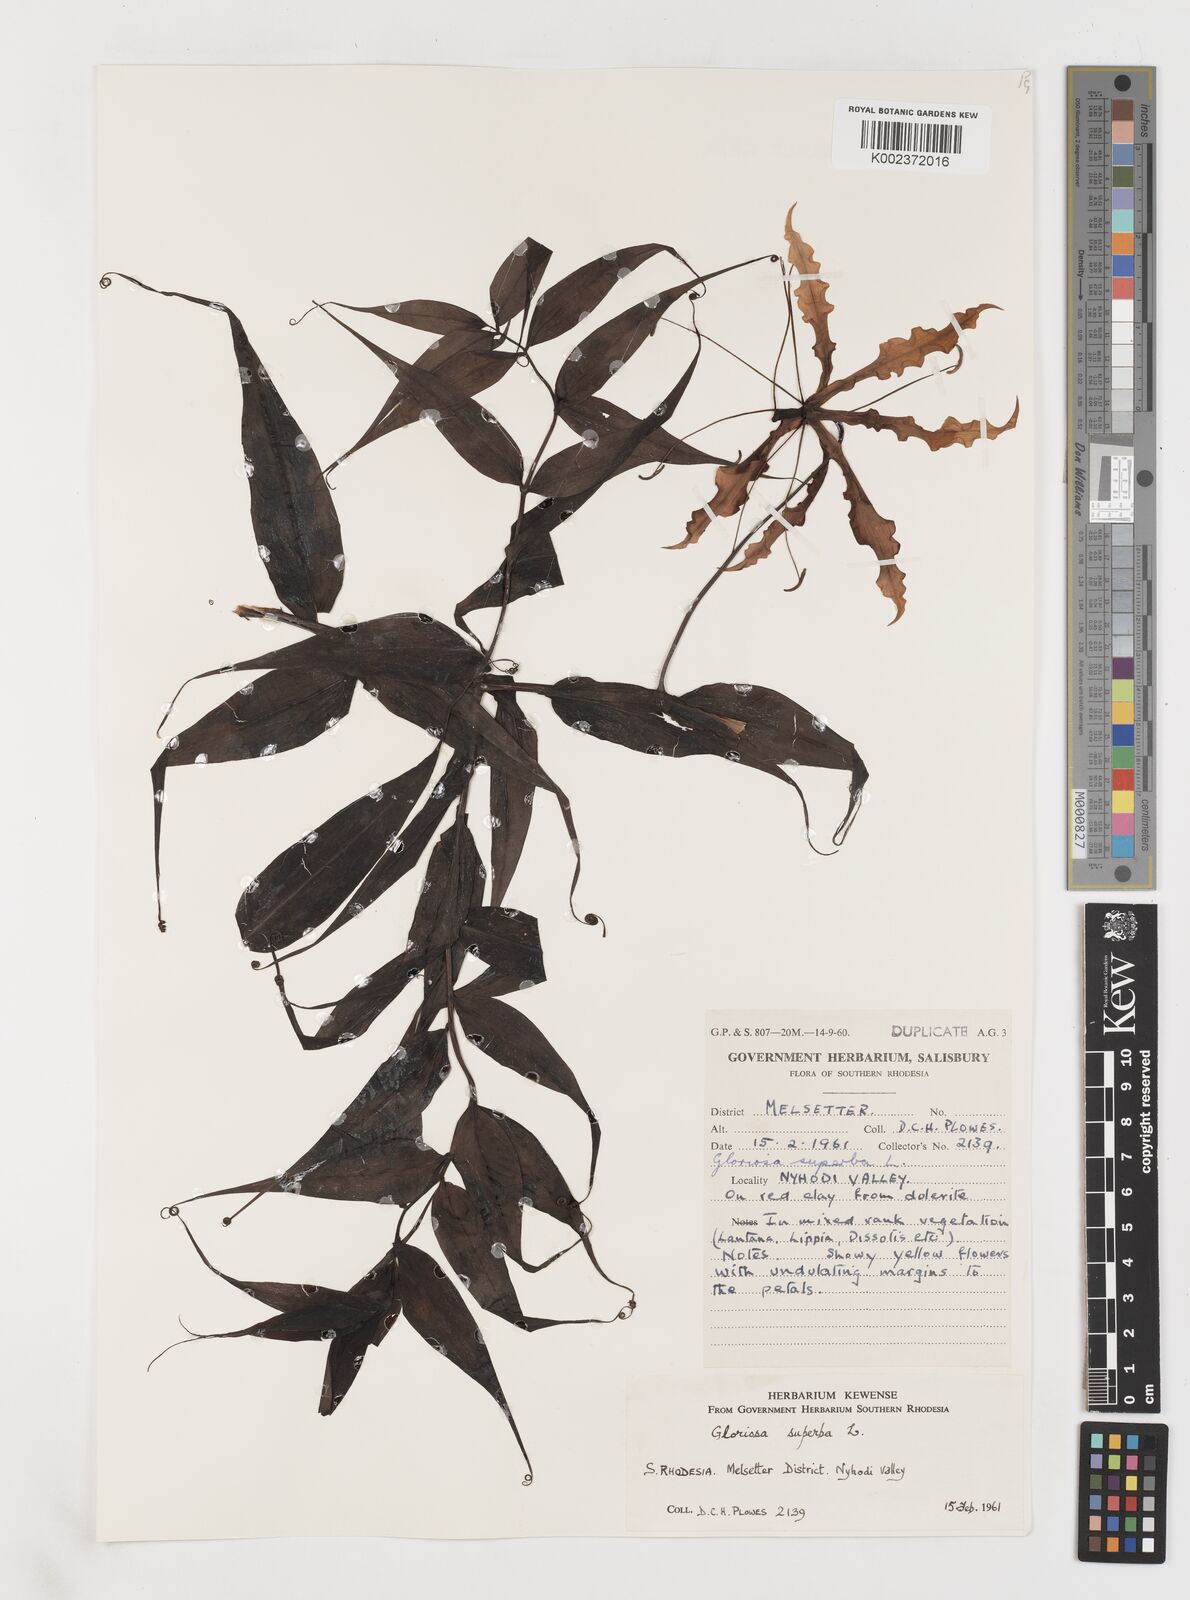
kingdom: Plantae
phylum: Tracheophyta
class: Liliopsida
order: Liliales
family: Colchicaceae
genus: Gloriosa
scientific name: Gloriosa superba
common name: Flame lily
